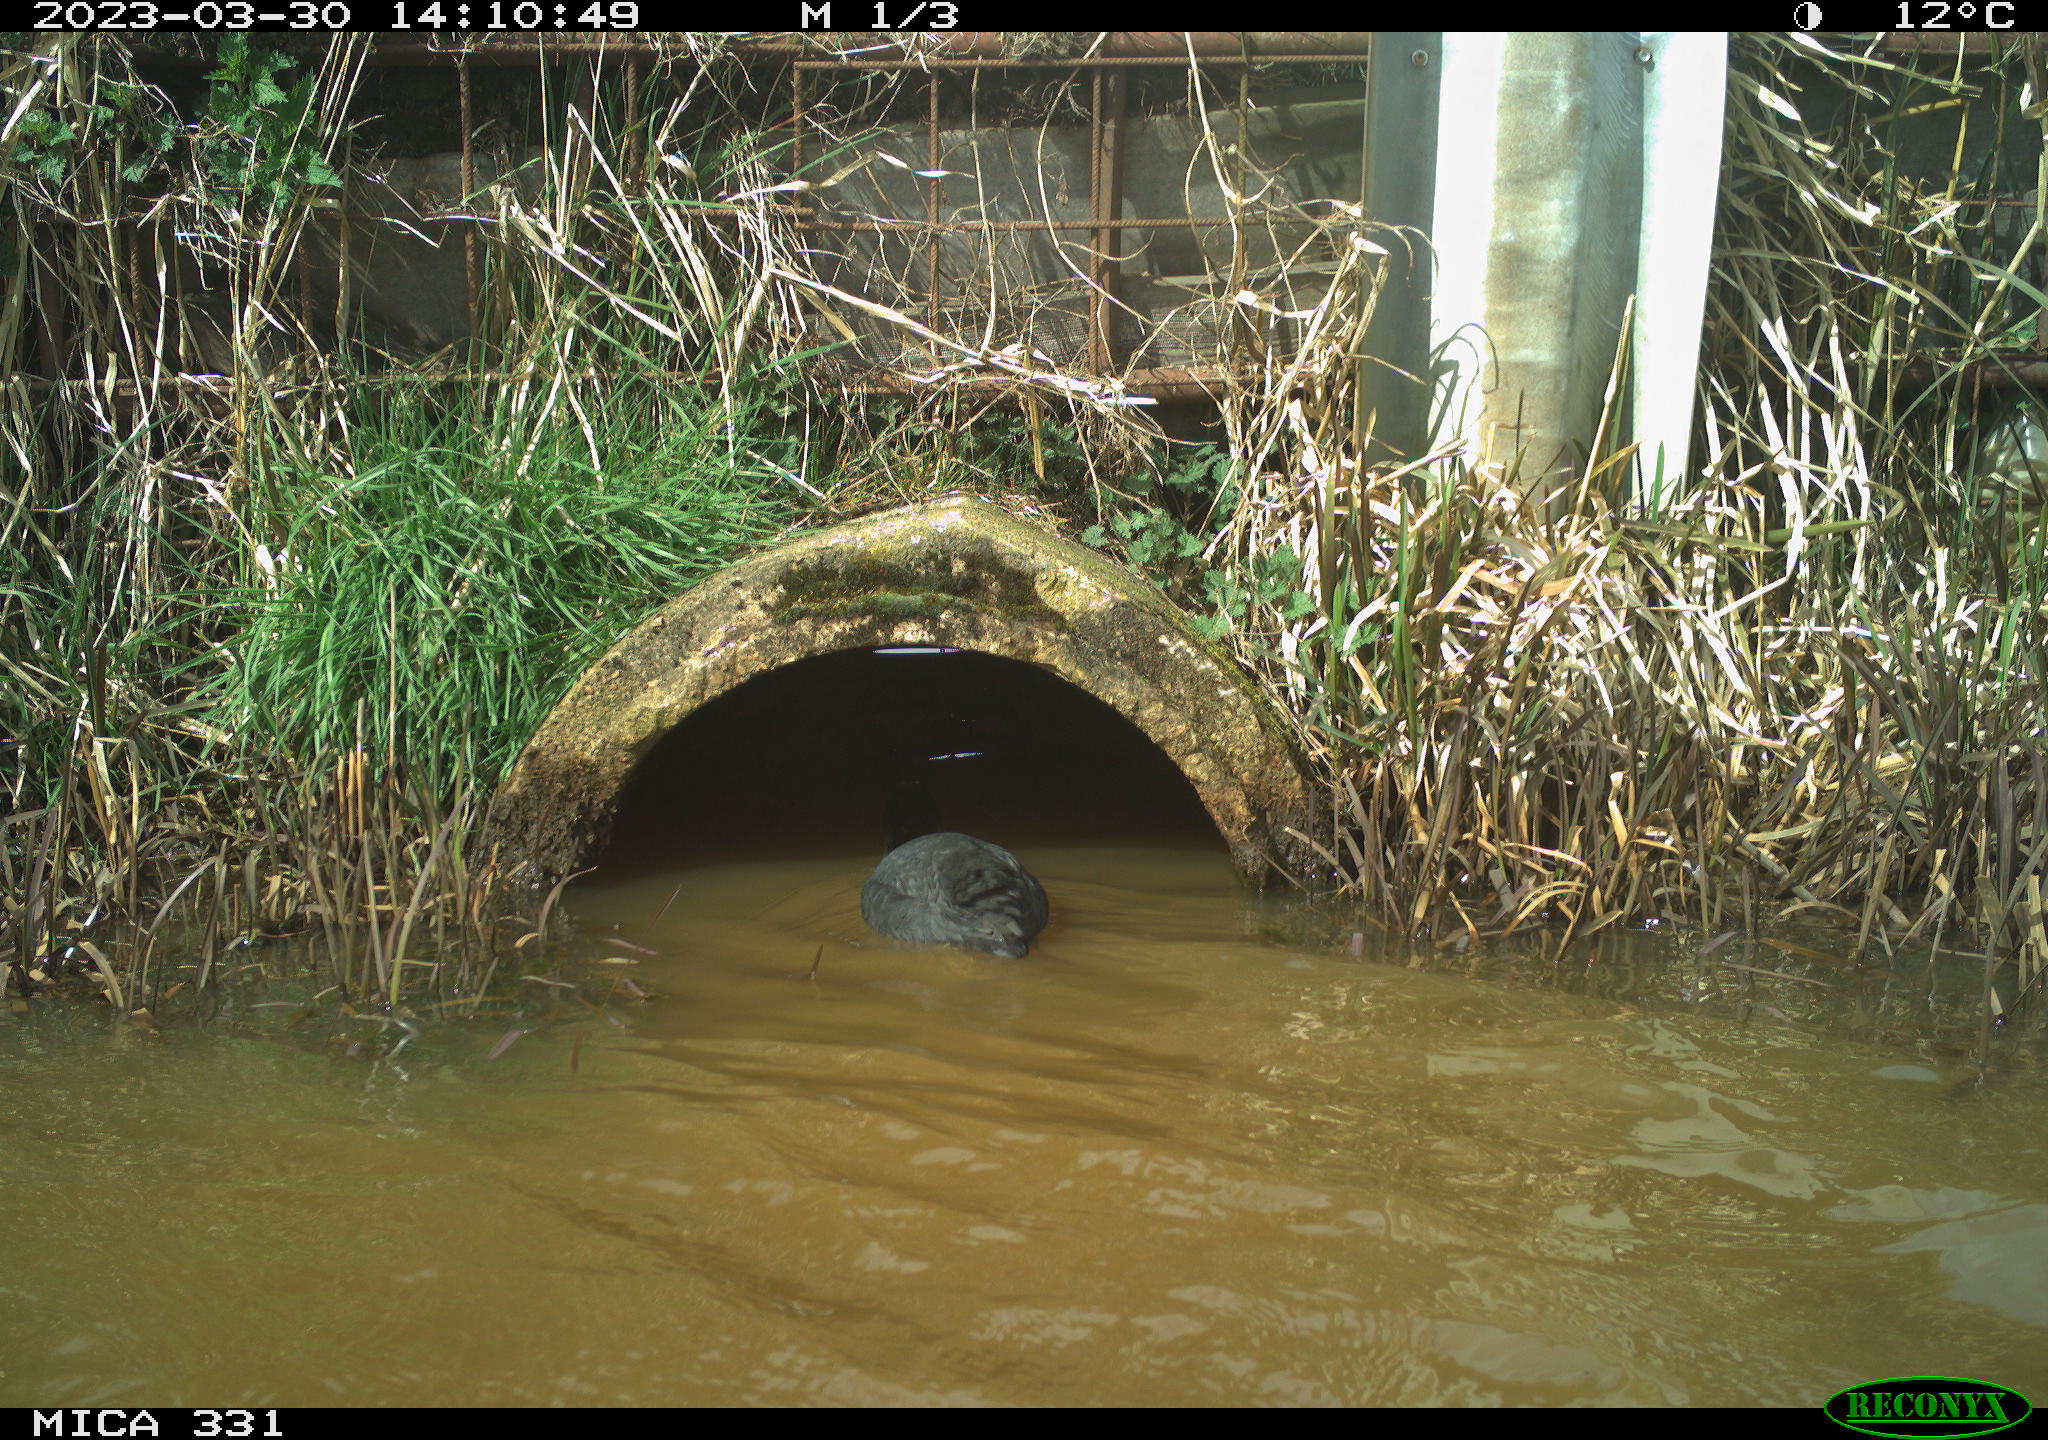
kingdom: Animalia
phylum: Chordata
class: Aves
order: Gruiformes
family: Rallidae
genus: Gallinula
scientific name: Gallinula chloropus
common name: Common moorhen
